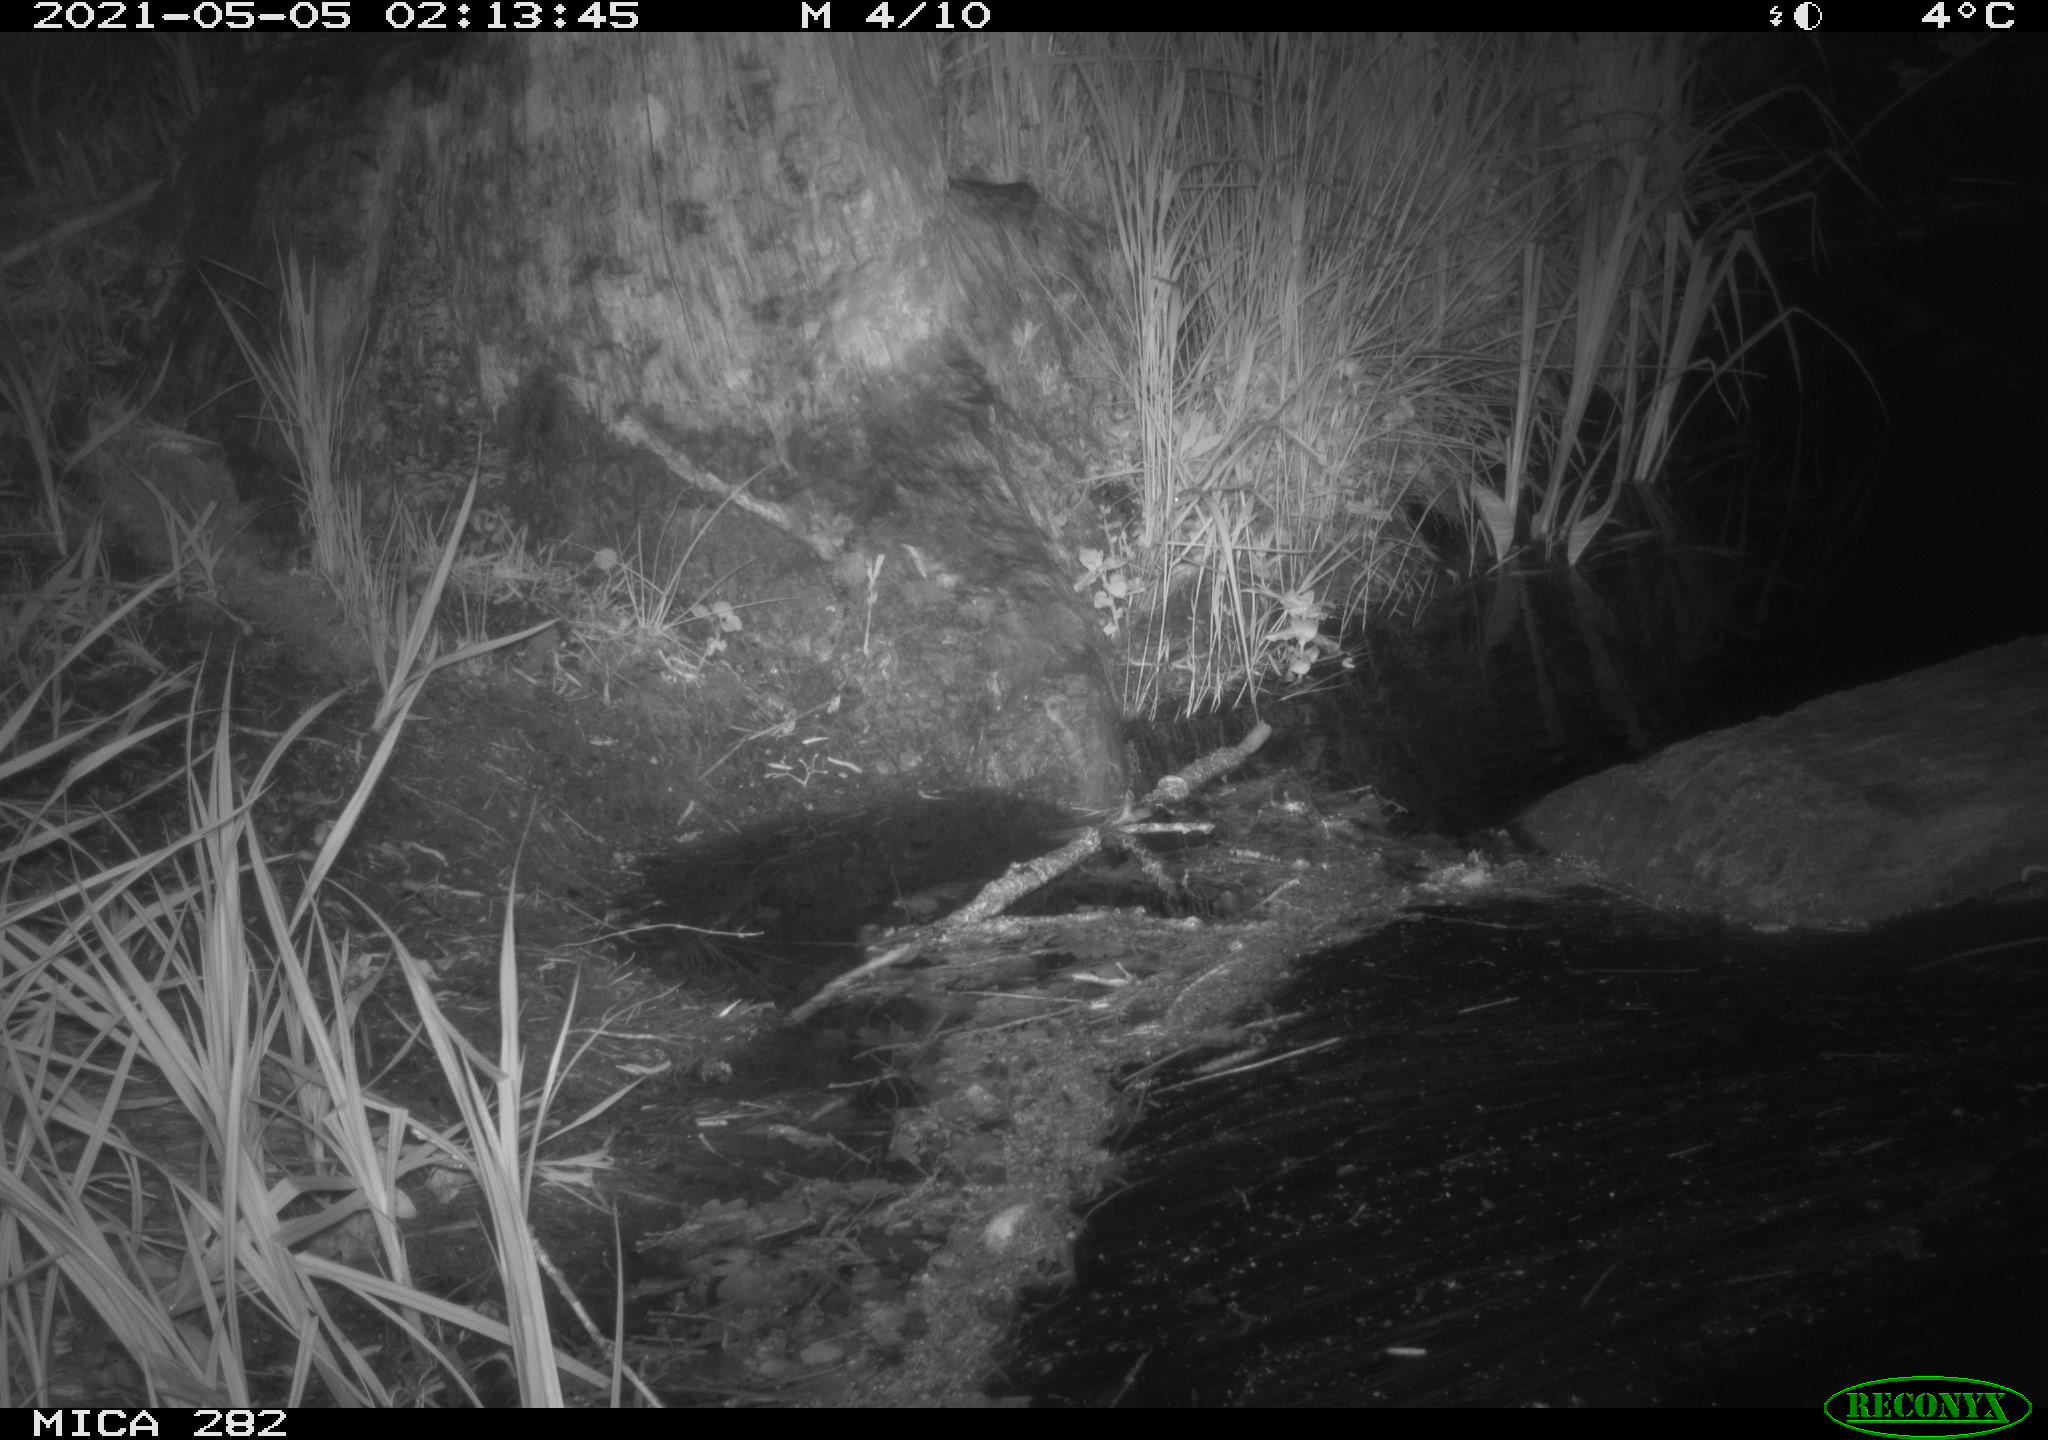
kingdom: Animalia
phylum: Chordata
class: Mammalia
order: Carnivora
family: Mustelidae
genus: Martes
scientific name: Martes foina
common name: Beech marten
